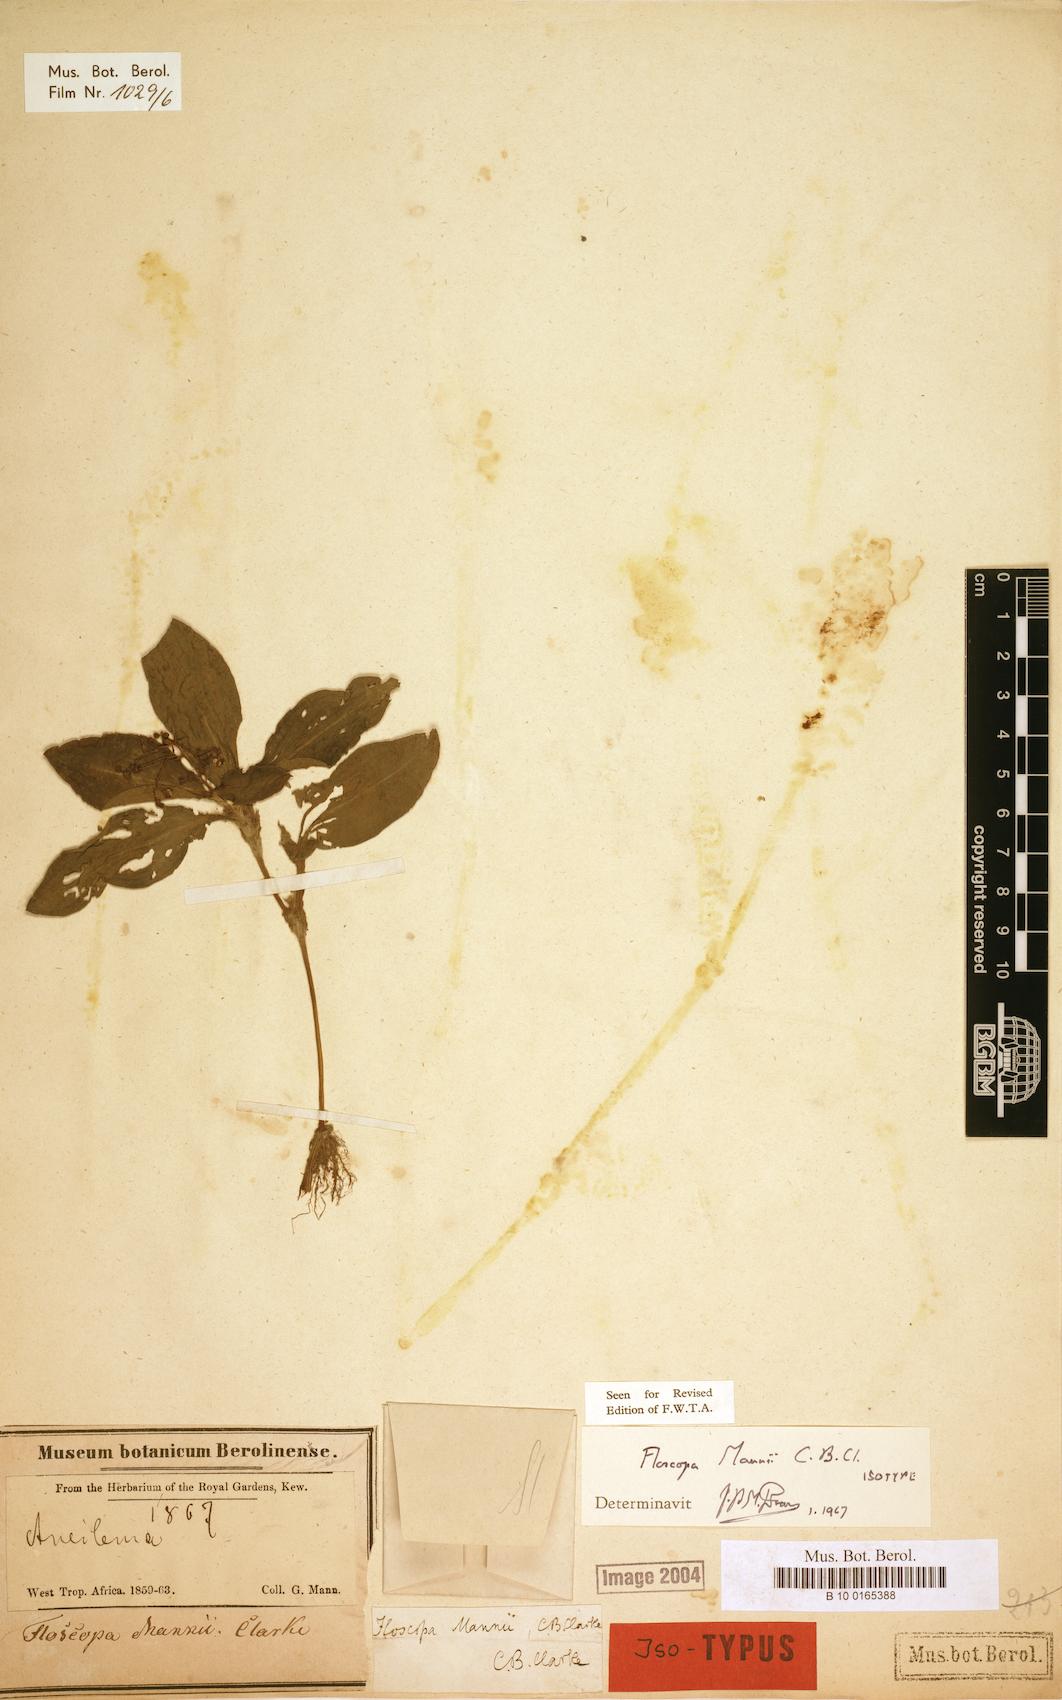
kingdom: Plantae
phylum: Tracheophyta
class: Liliopsida
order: Commelinales
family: Commelinaceae
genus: Floscopa
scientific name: Floscopa mannii
